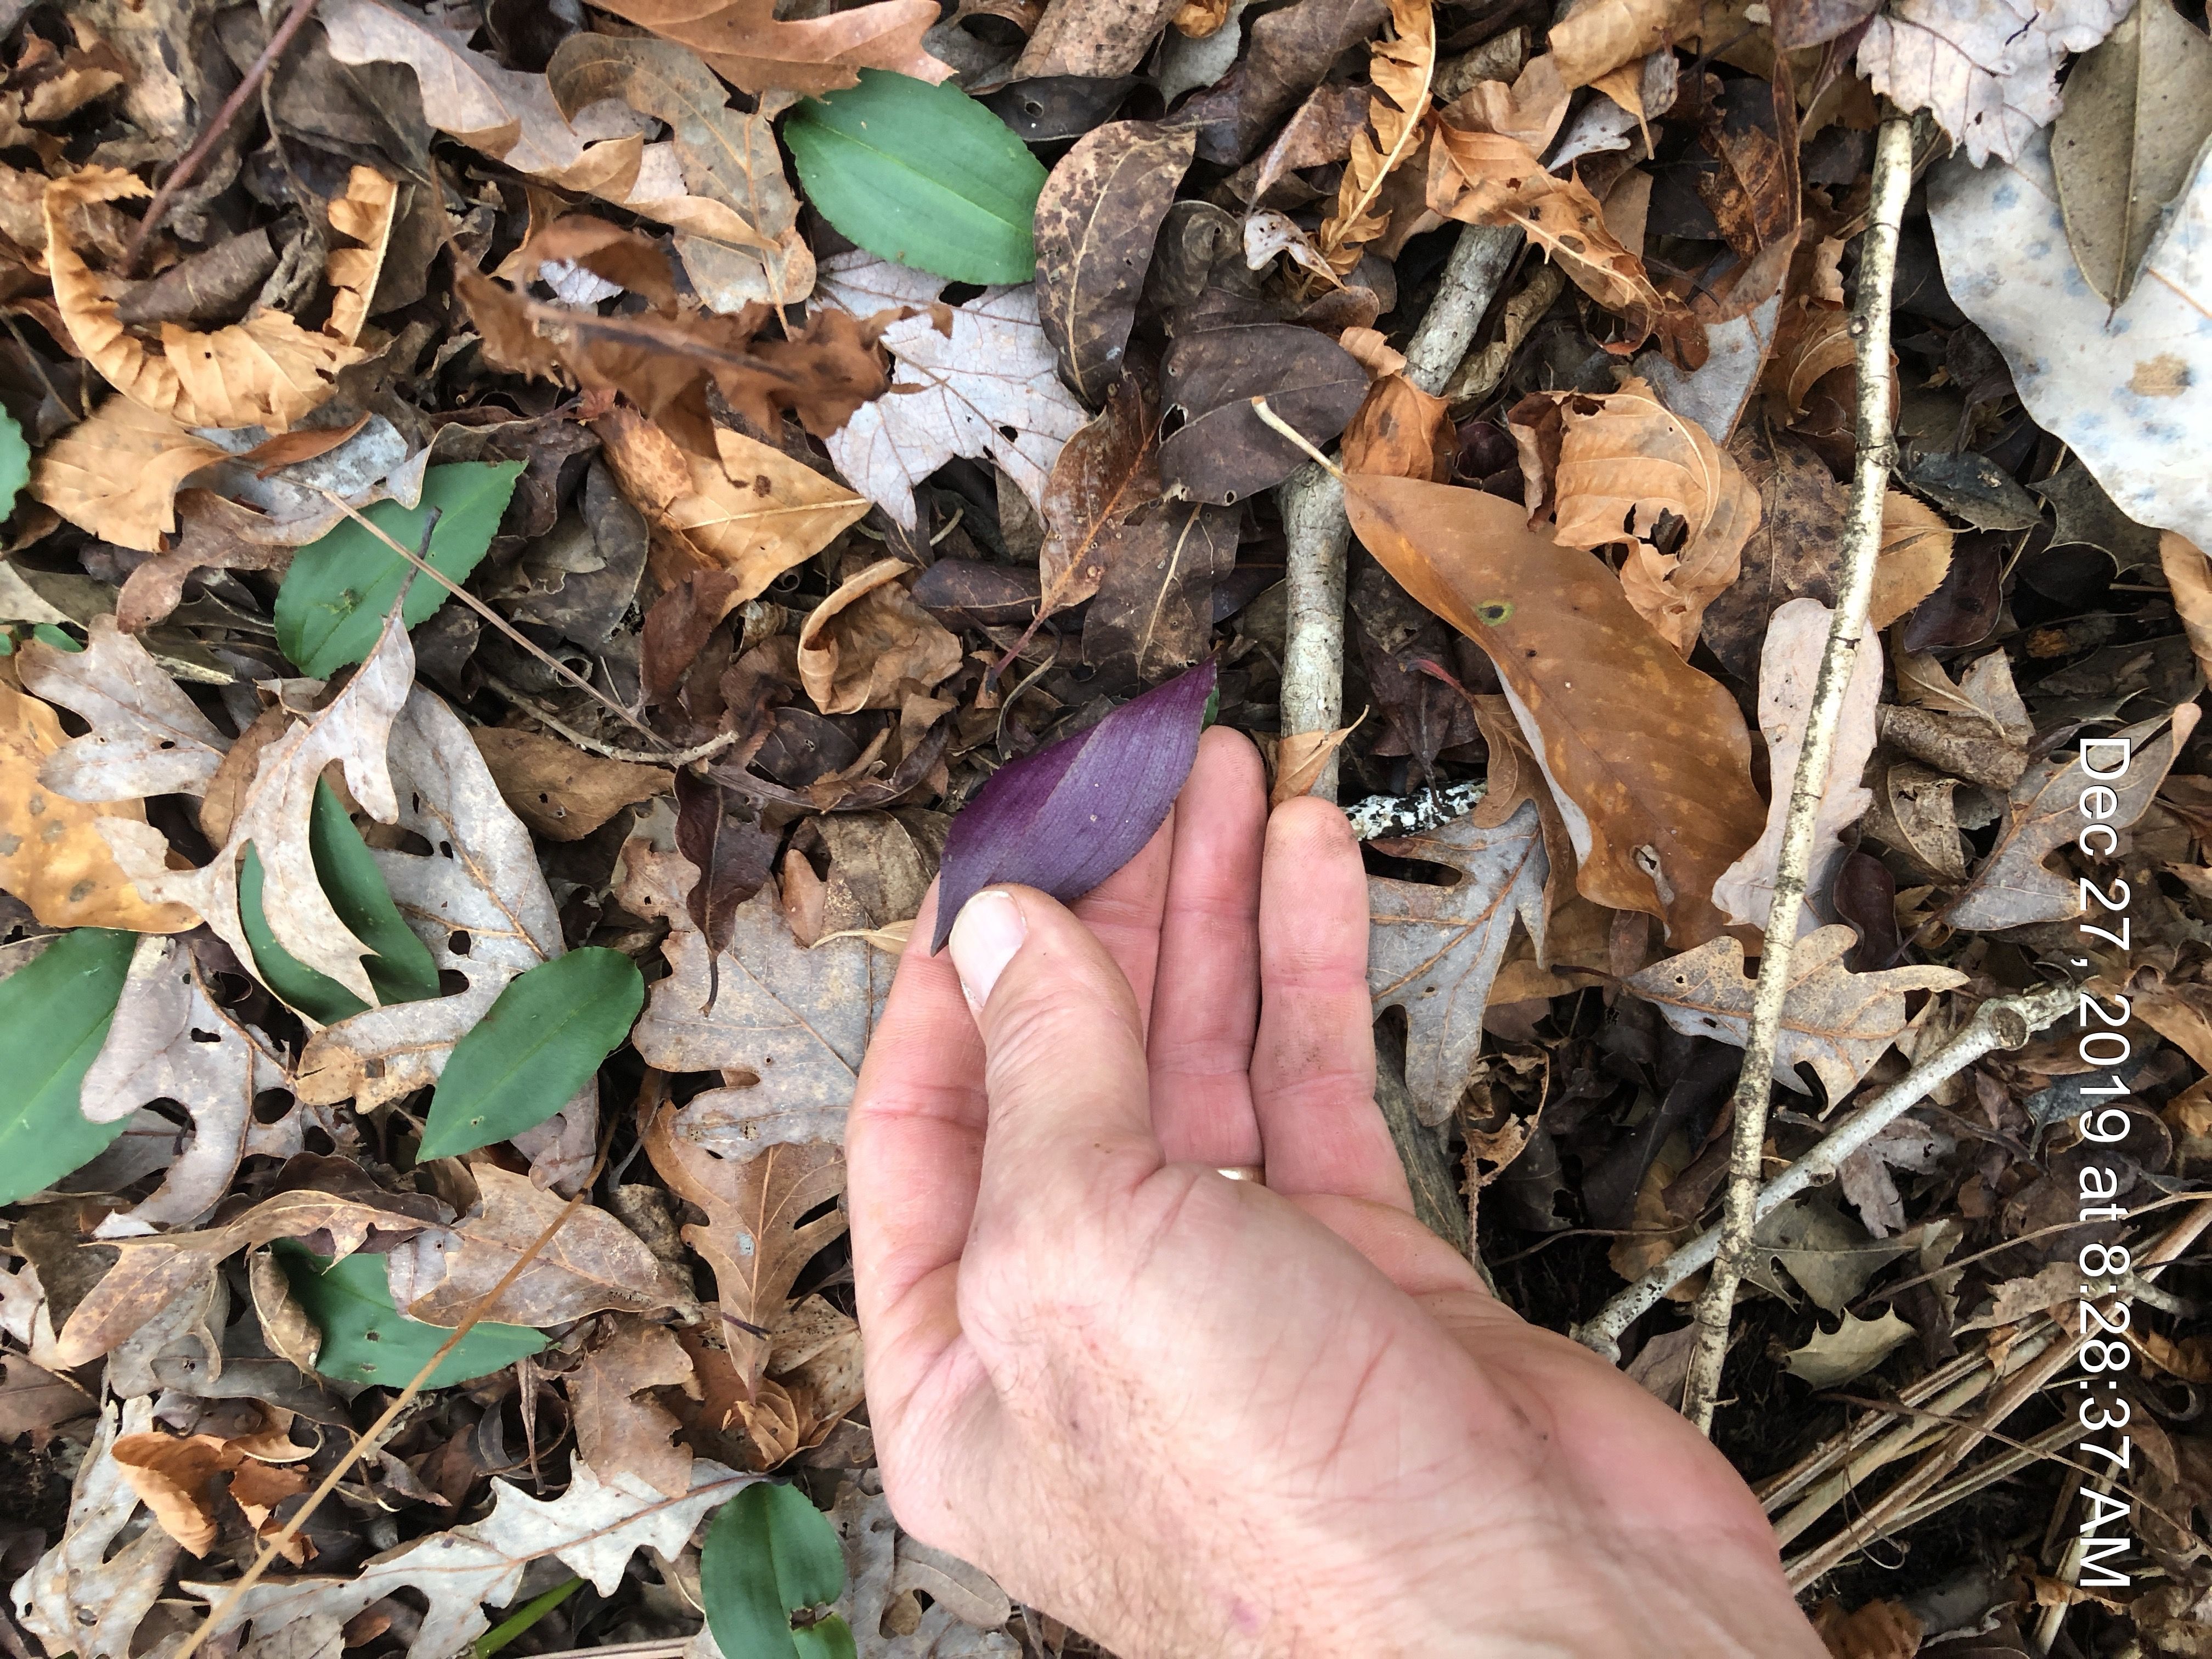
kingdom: Plantae
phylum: Tracheophyta
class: Liliopsida
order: Asparagales
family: Orchidaceae
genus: Tipularia
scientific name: Tipularia discolor
